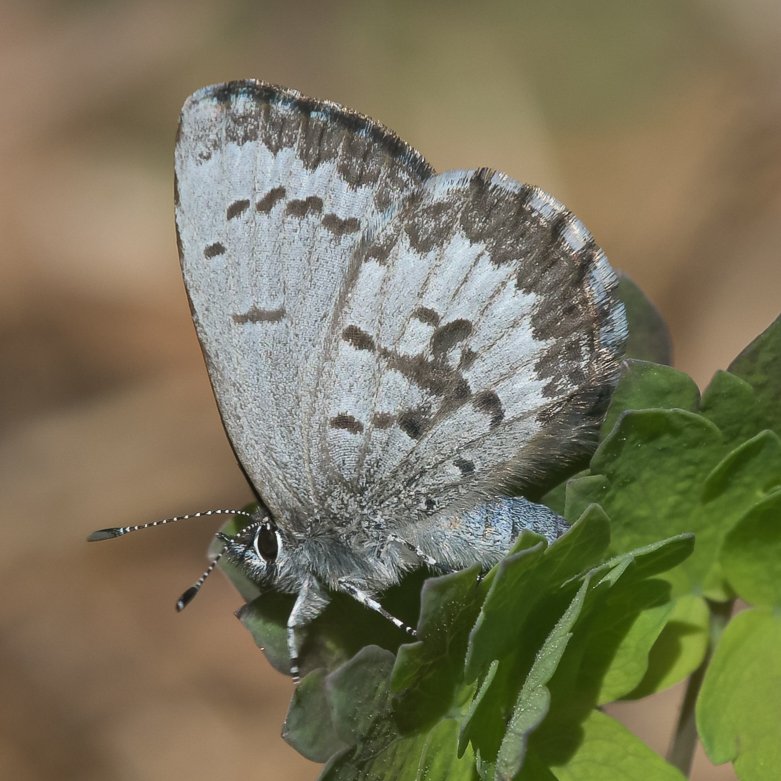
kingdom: Animalia
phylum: Arthropoda
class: Insecta
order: Lepidoptera
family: Lycaenidae
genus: Celastrina
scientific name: Celastrina lucia
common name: Northern Spring Azure
